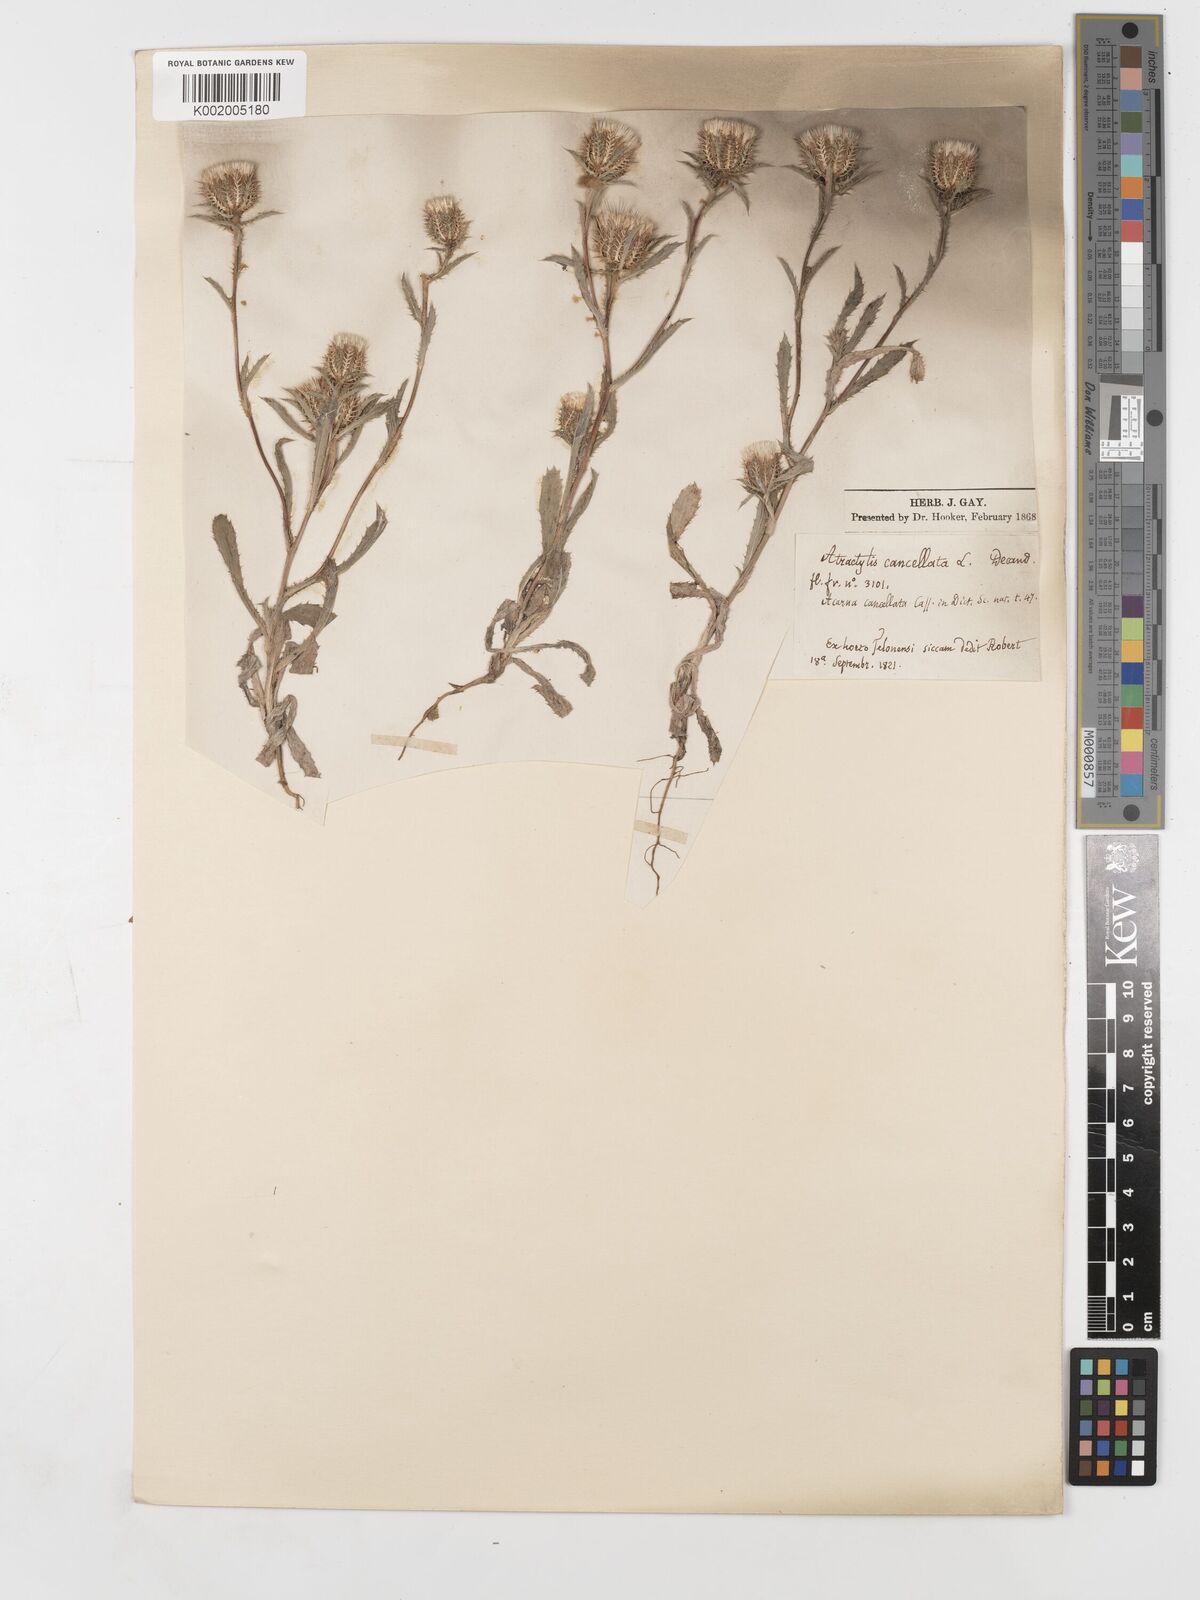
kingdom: Plantae
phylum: Tracheophyta
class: Magnoliopsida
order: Asterales
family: Asteraceae
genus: Atractylis
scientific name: Atractylis cancellata
